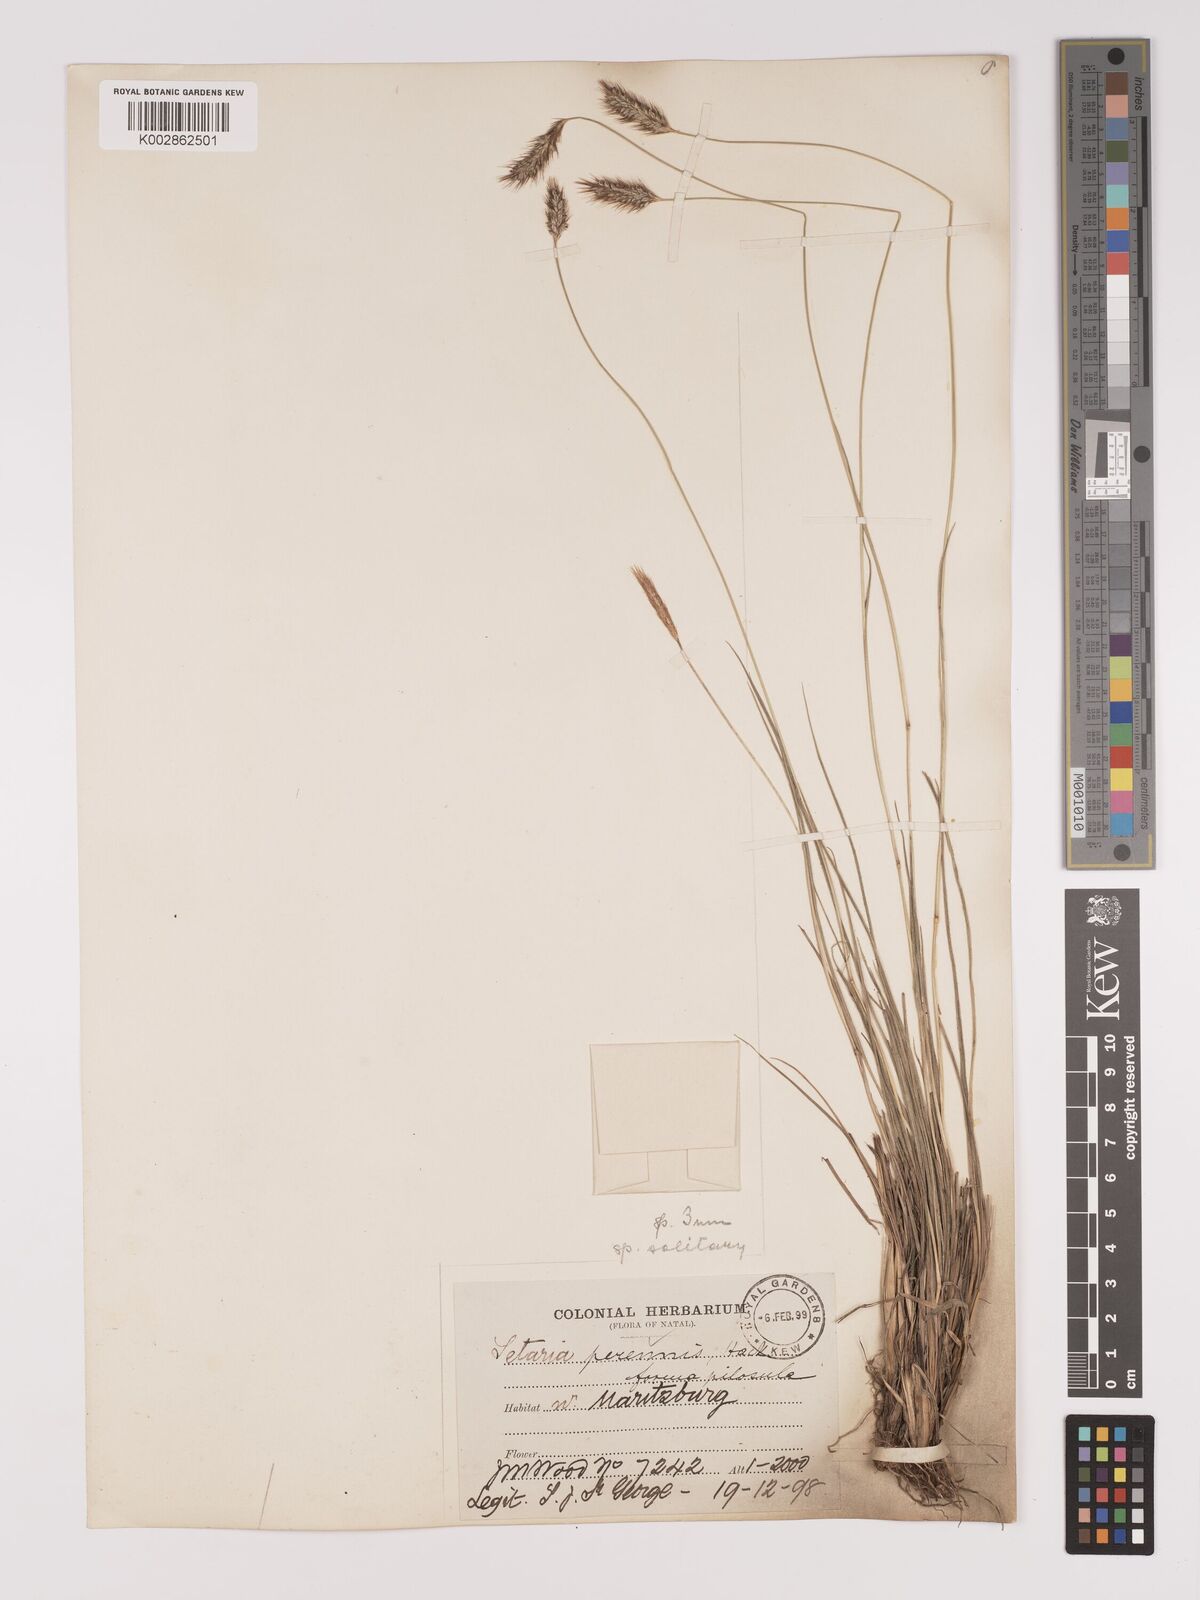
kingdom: Plantae
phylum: Tracheophyta
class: Liliopsida
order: Poales
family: Poaceae
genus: Setaria
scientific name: Setaria sphacelata
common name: African bristlegrass
